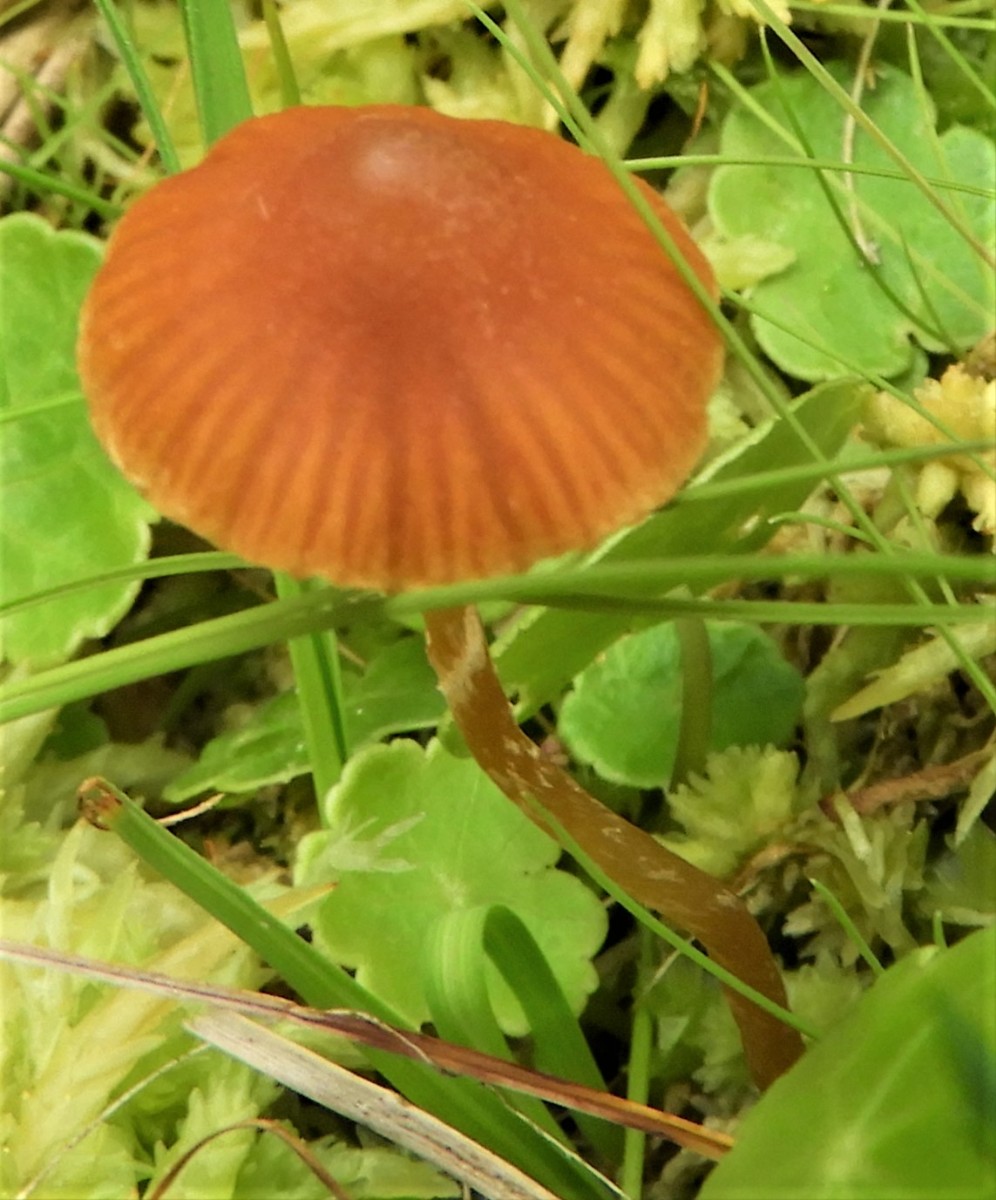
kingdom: Fungi
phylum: Basidiomycota
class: Agaricomycetes
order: Agaricales
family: Hymenogastraceae
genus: Galerina
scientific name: Galerina paludosa
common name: mose-hjelmhat
